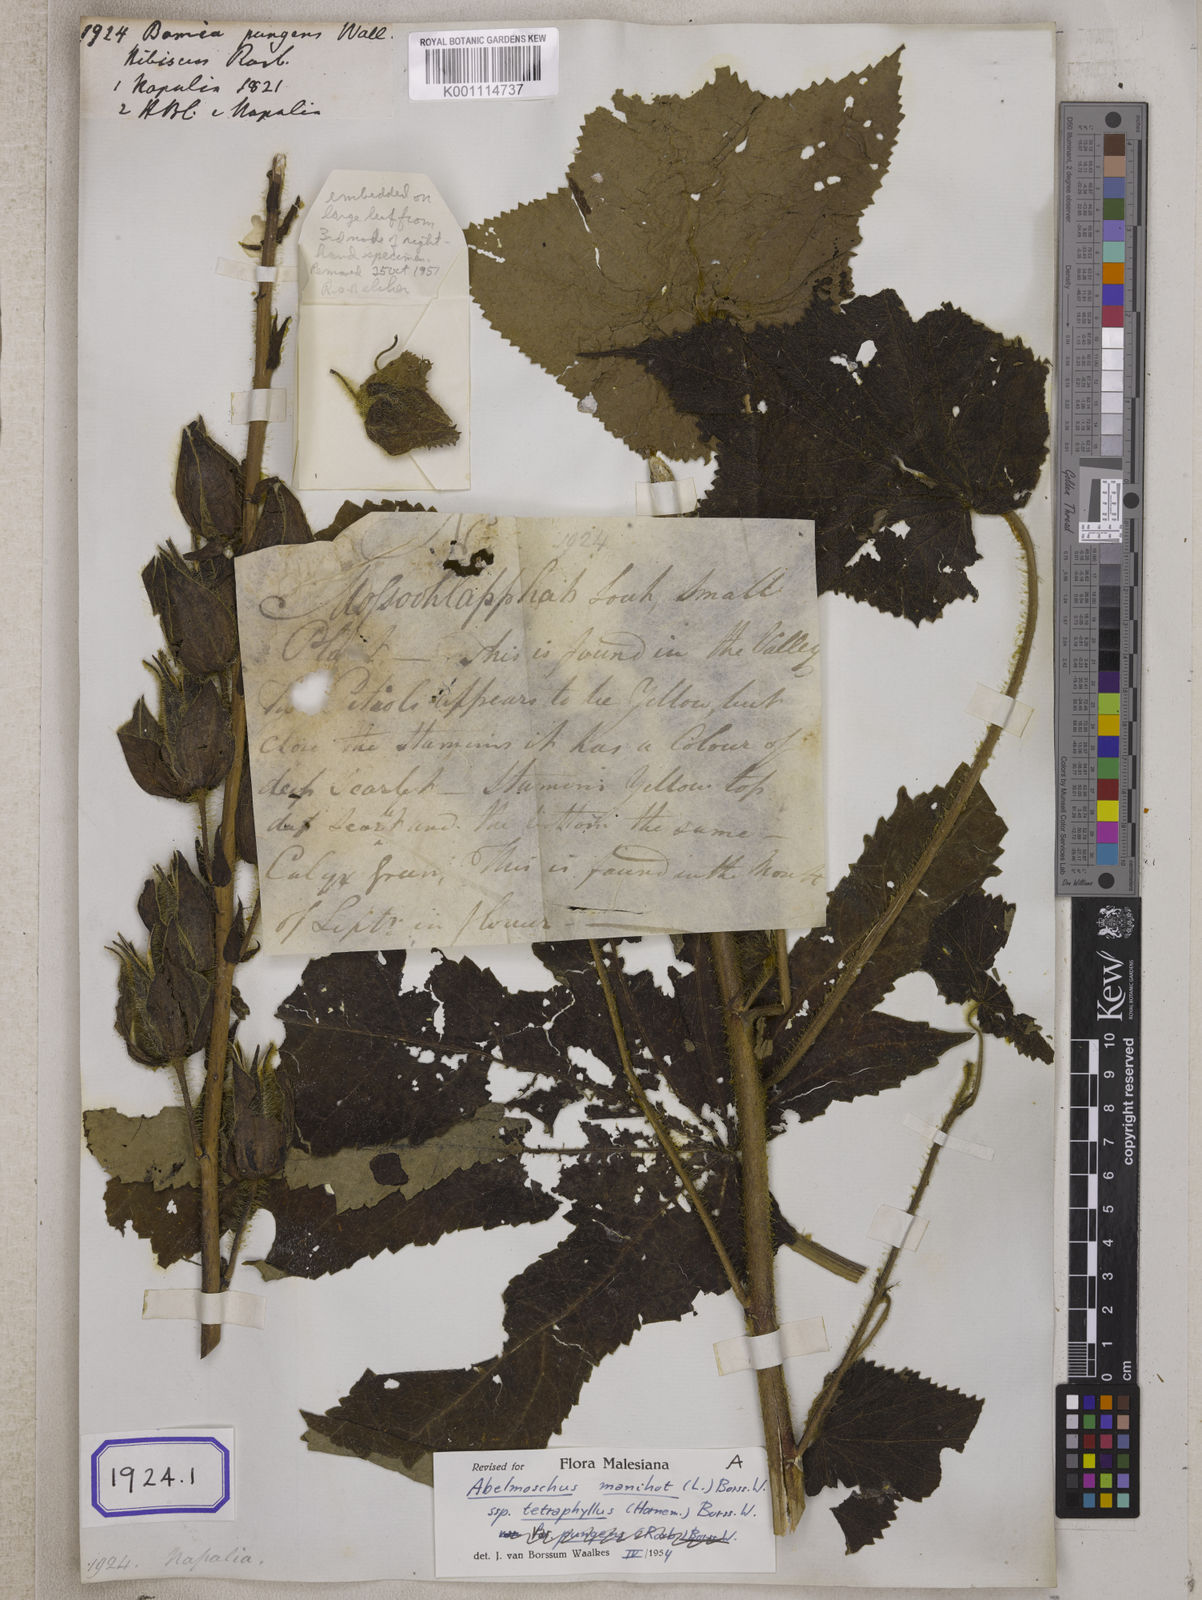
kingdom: Plantae
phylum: Tracheophyta
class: Magnoliopsida
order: Malvales
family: Malvaceae
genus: Bamia
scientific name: Bamia
